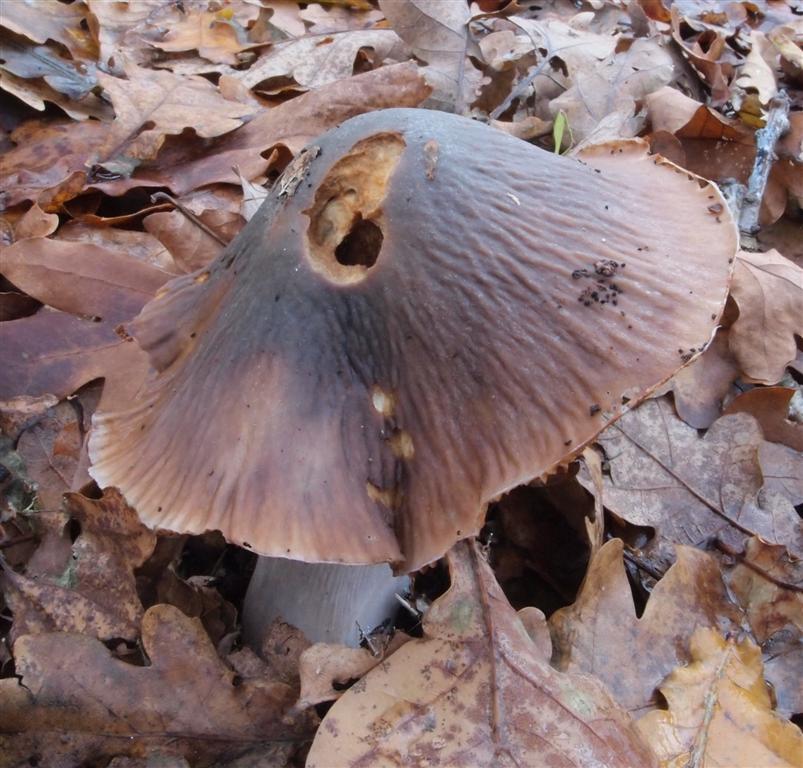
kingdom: Fungi
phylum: Basidiomycota
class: Agaricomycetes
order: Agaricales
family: Cortinariaceae
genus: Cortinarius
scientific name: Cortinarius elatior
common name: høj slørhat
